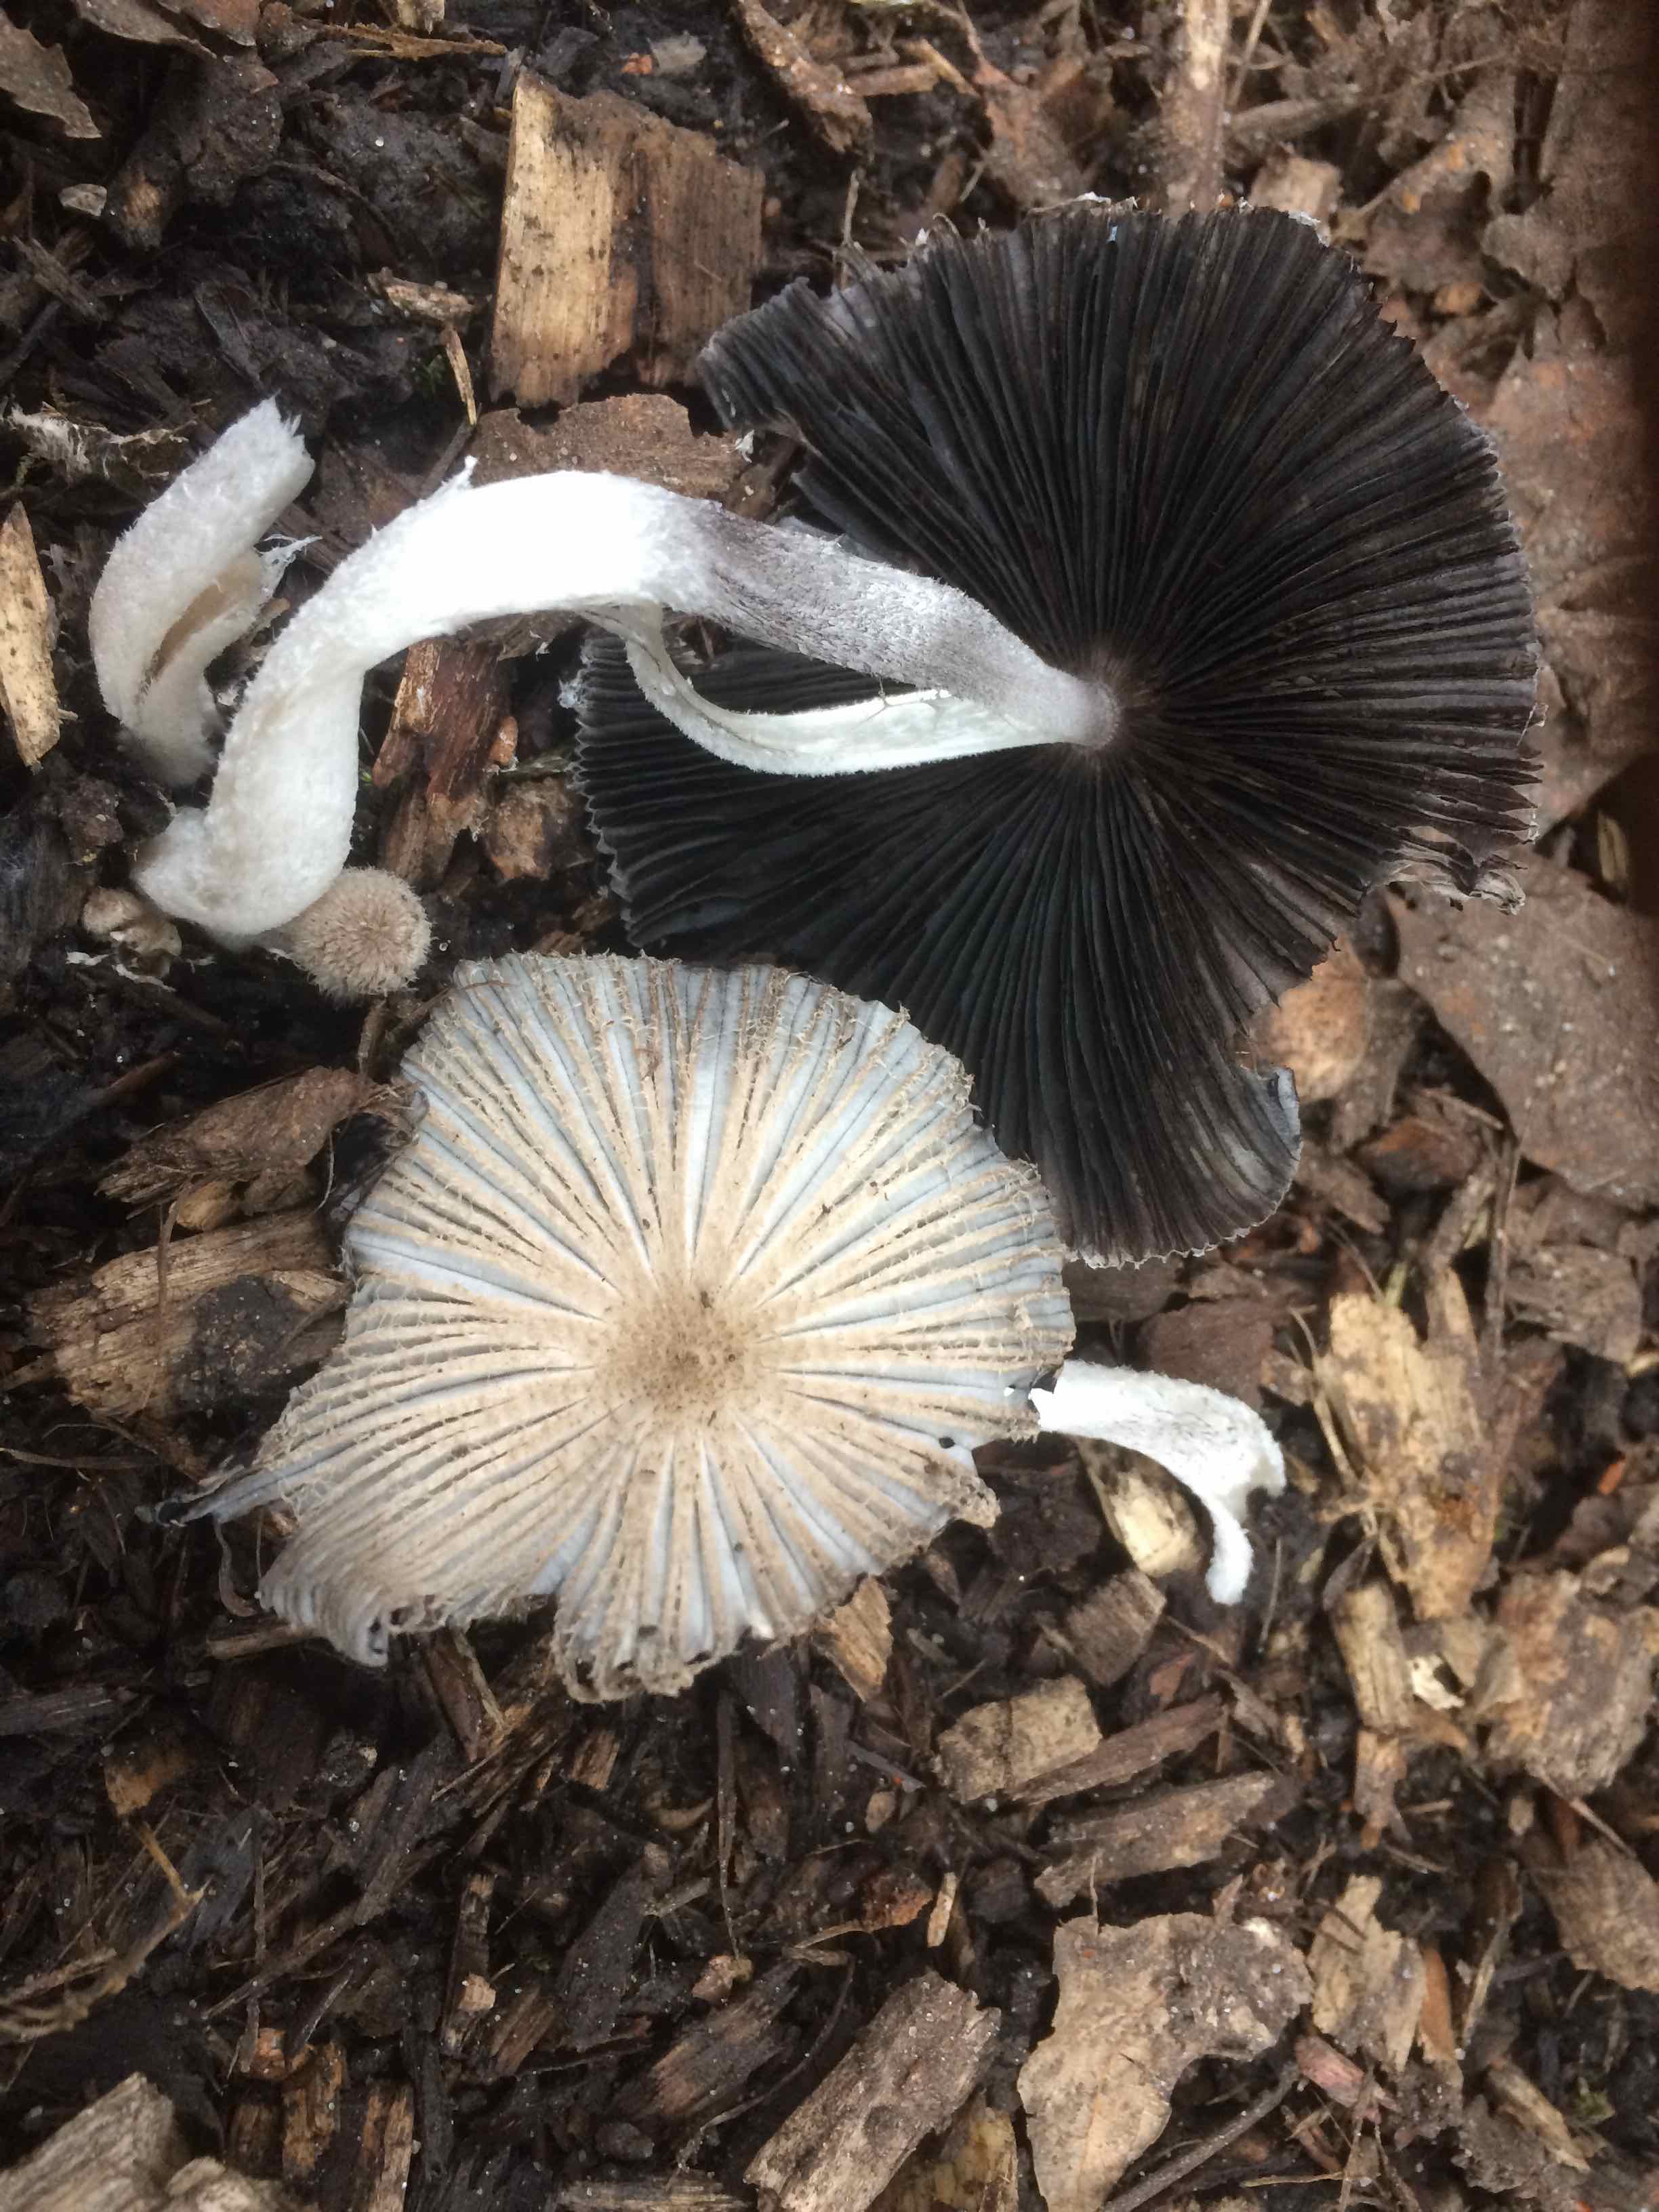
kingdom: Fungi
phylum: Basidiomycota
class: Agaricomycetes
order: Agaricales
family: Psathyrellaceae
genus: Coprinopsis
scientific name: Coprinopsis lagopus
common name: dunstokket blækhat
